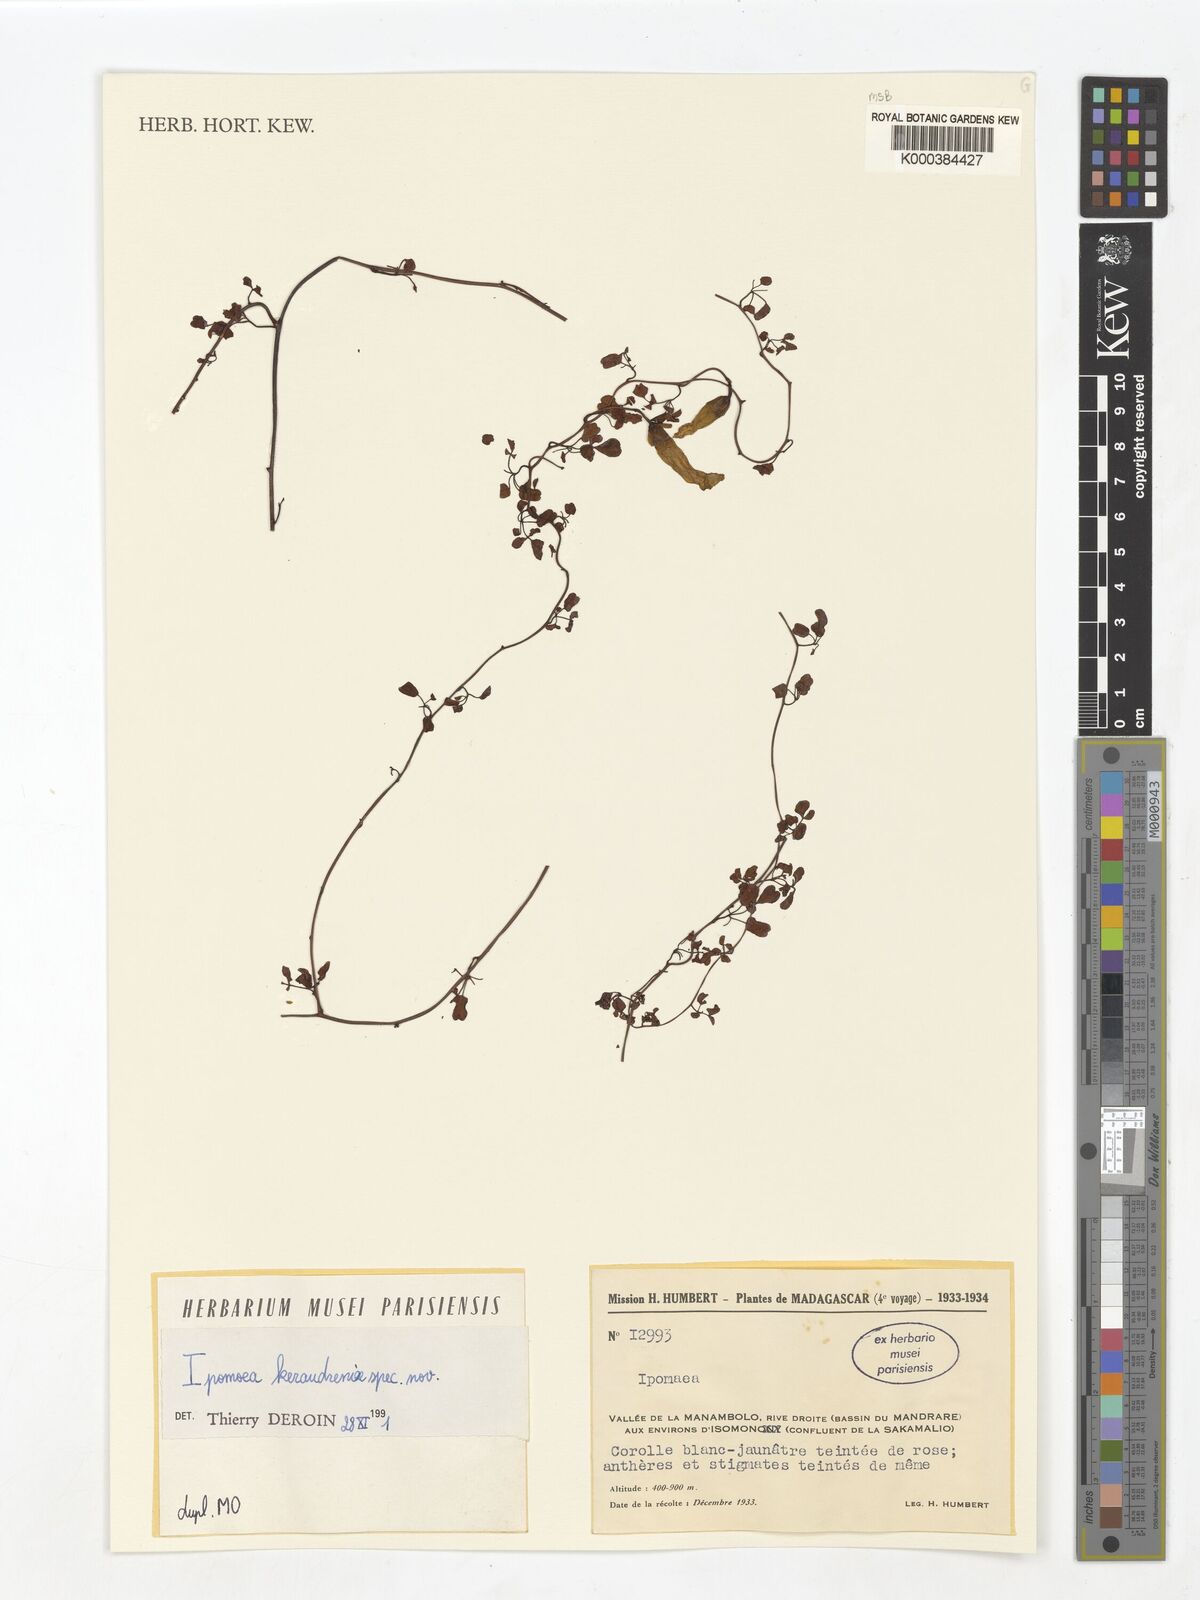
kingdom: Plantae
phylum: Tracheophyta
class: Magnoliopsida
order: Solanales
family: Convolvulaceae
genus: Ipomoea
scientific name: Ipomoea keraudreniae
